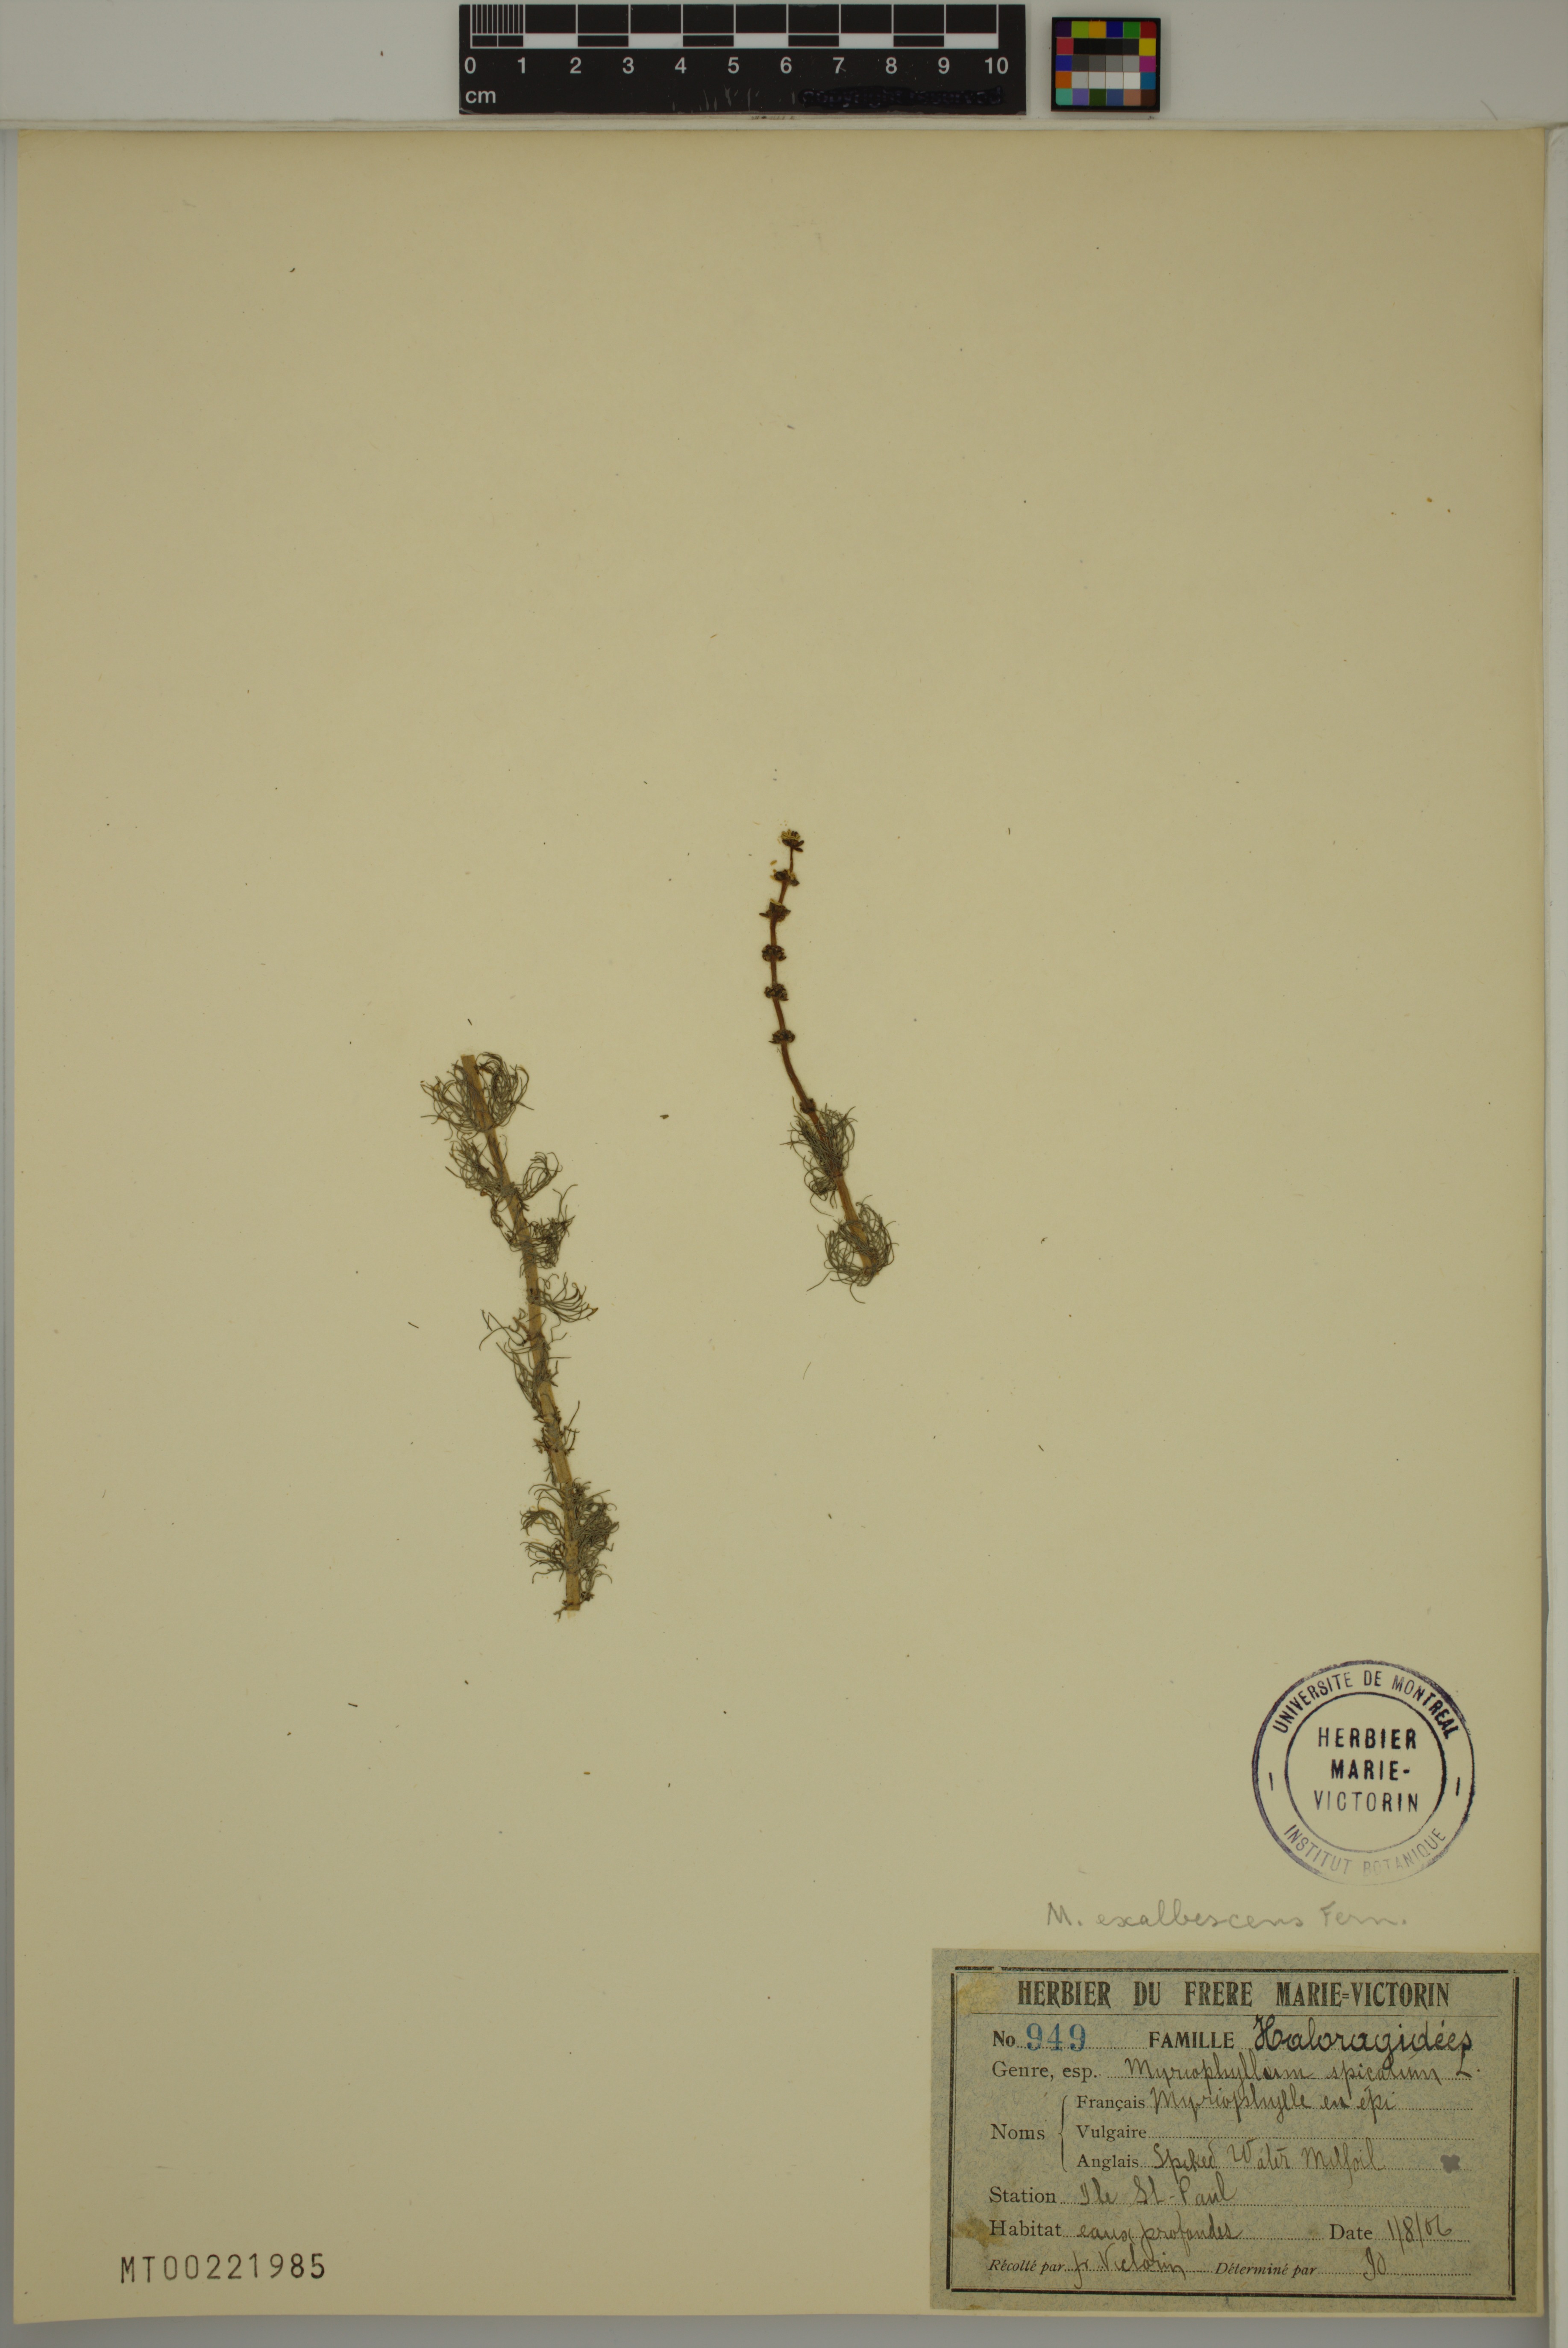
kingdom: Plantae
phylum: Tracheophyta
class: Magnoliopsida
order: Saxifragales
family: Haloragaceae
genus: Myriophyllum
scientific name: Myriophyllum sibiricum
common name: Siberian water-milfoil
